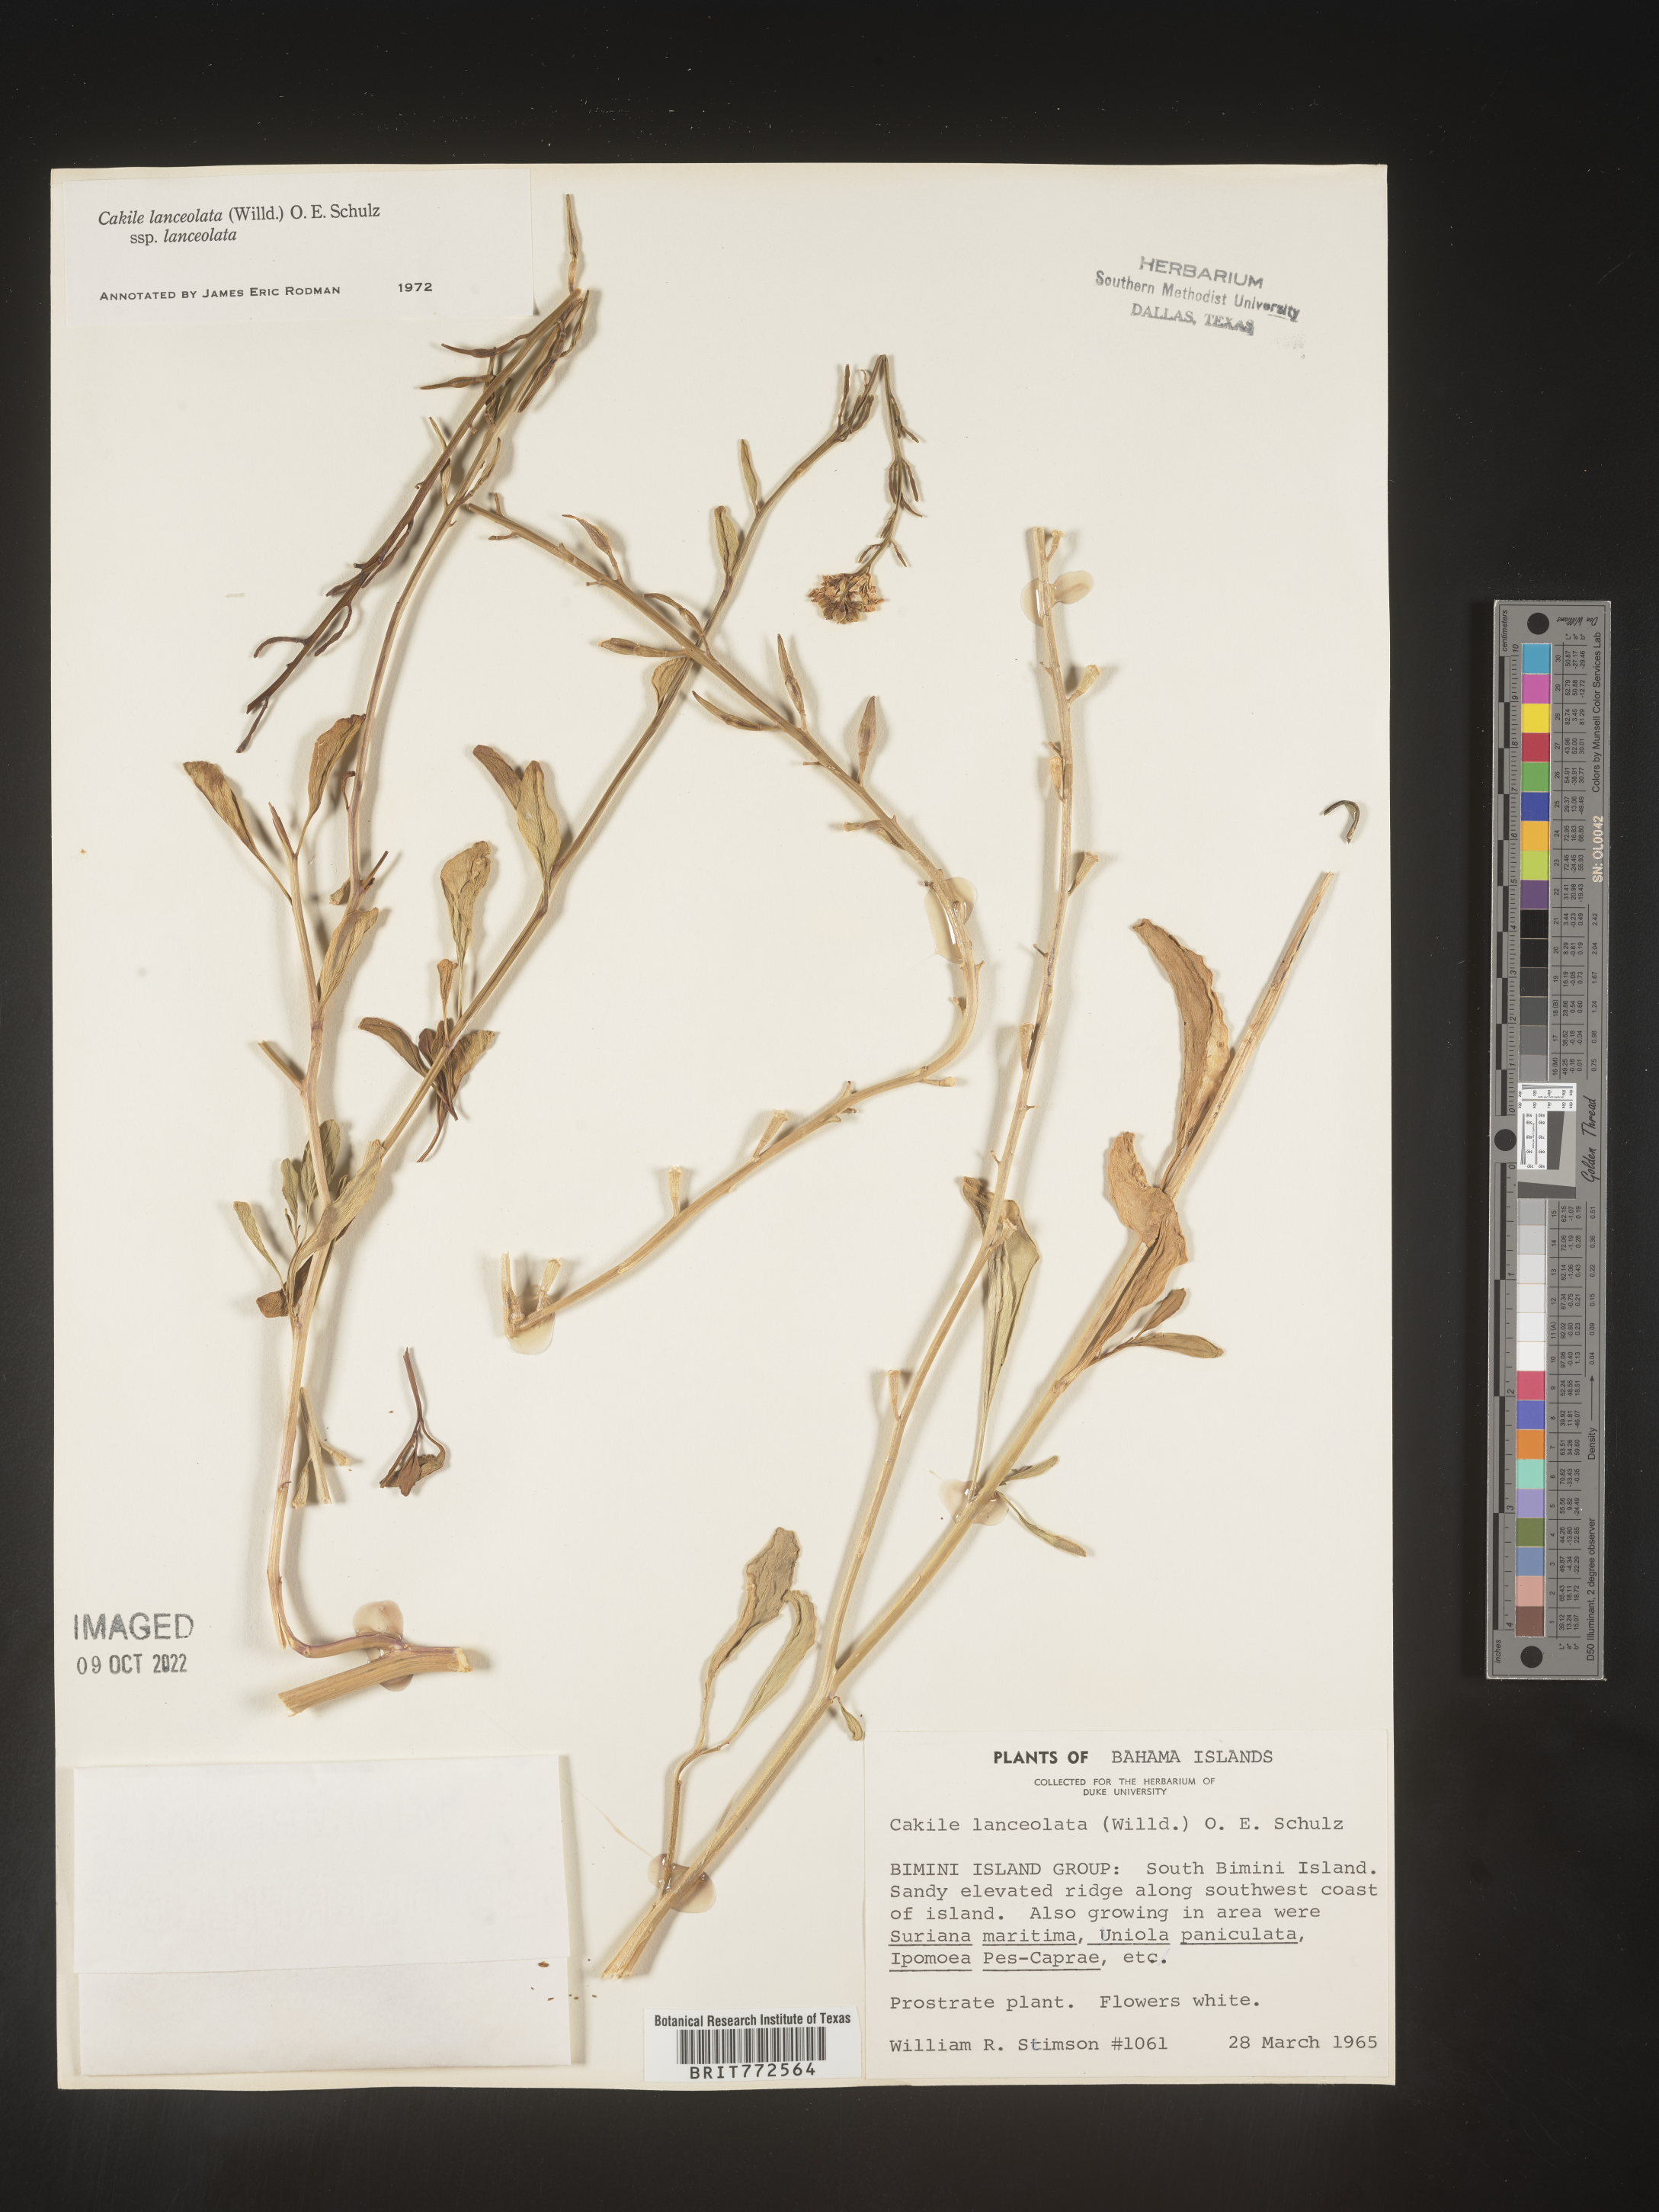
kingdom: Plantae
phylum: Tracheophyta
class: Magnoliopsida
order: Brassicales
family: Brassicaceae
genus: Cakile
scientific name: Cakile
